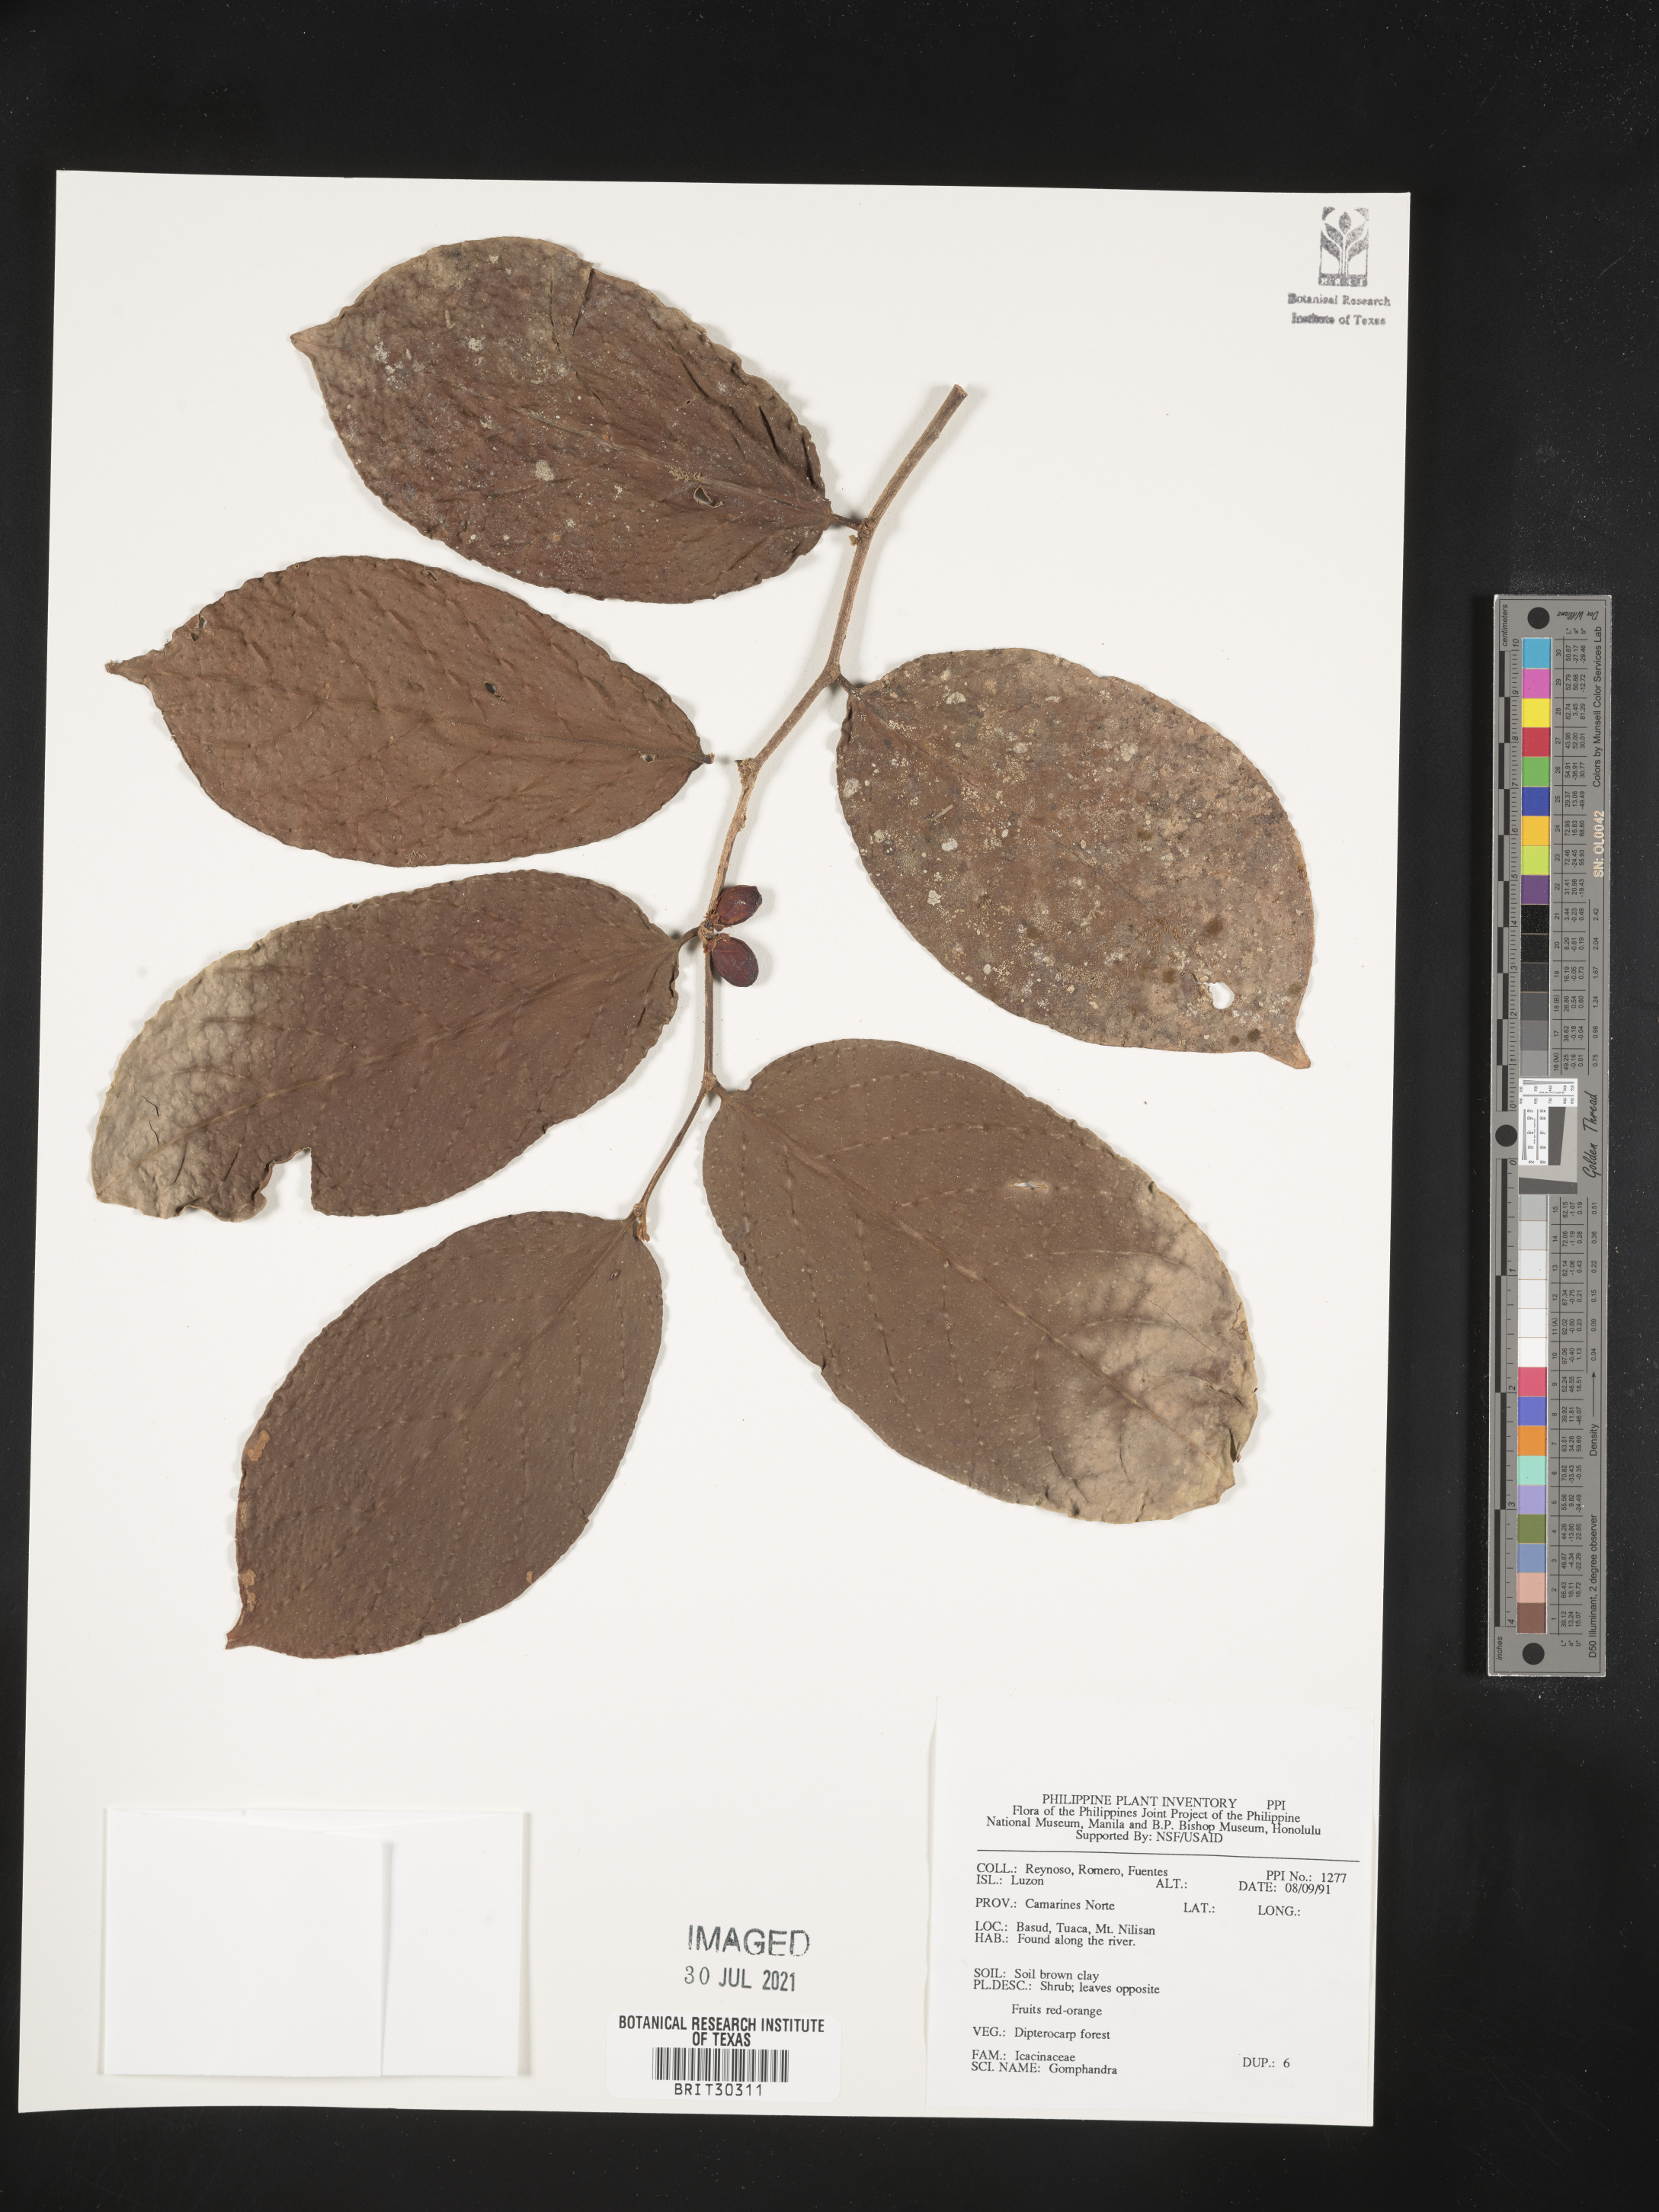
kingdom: Plantae
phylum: Tracheophyta
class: Magnoliopsida
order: Cardiopteridales
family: Stemonuraceae
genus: Gomphandra
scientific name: Gomphandra
